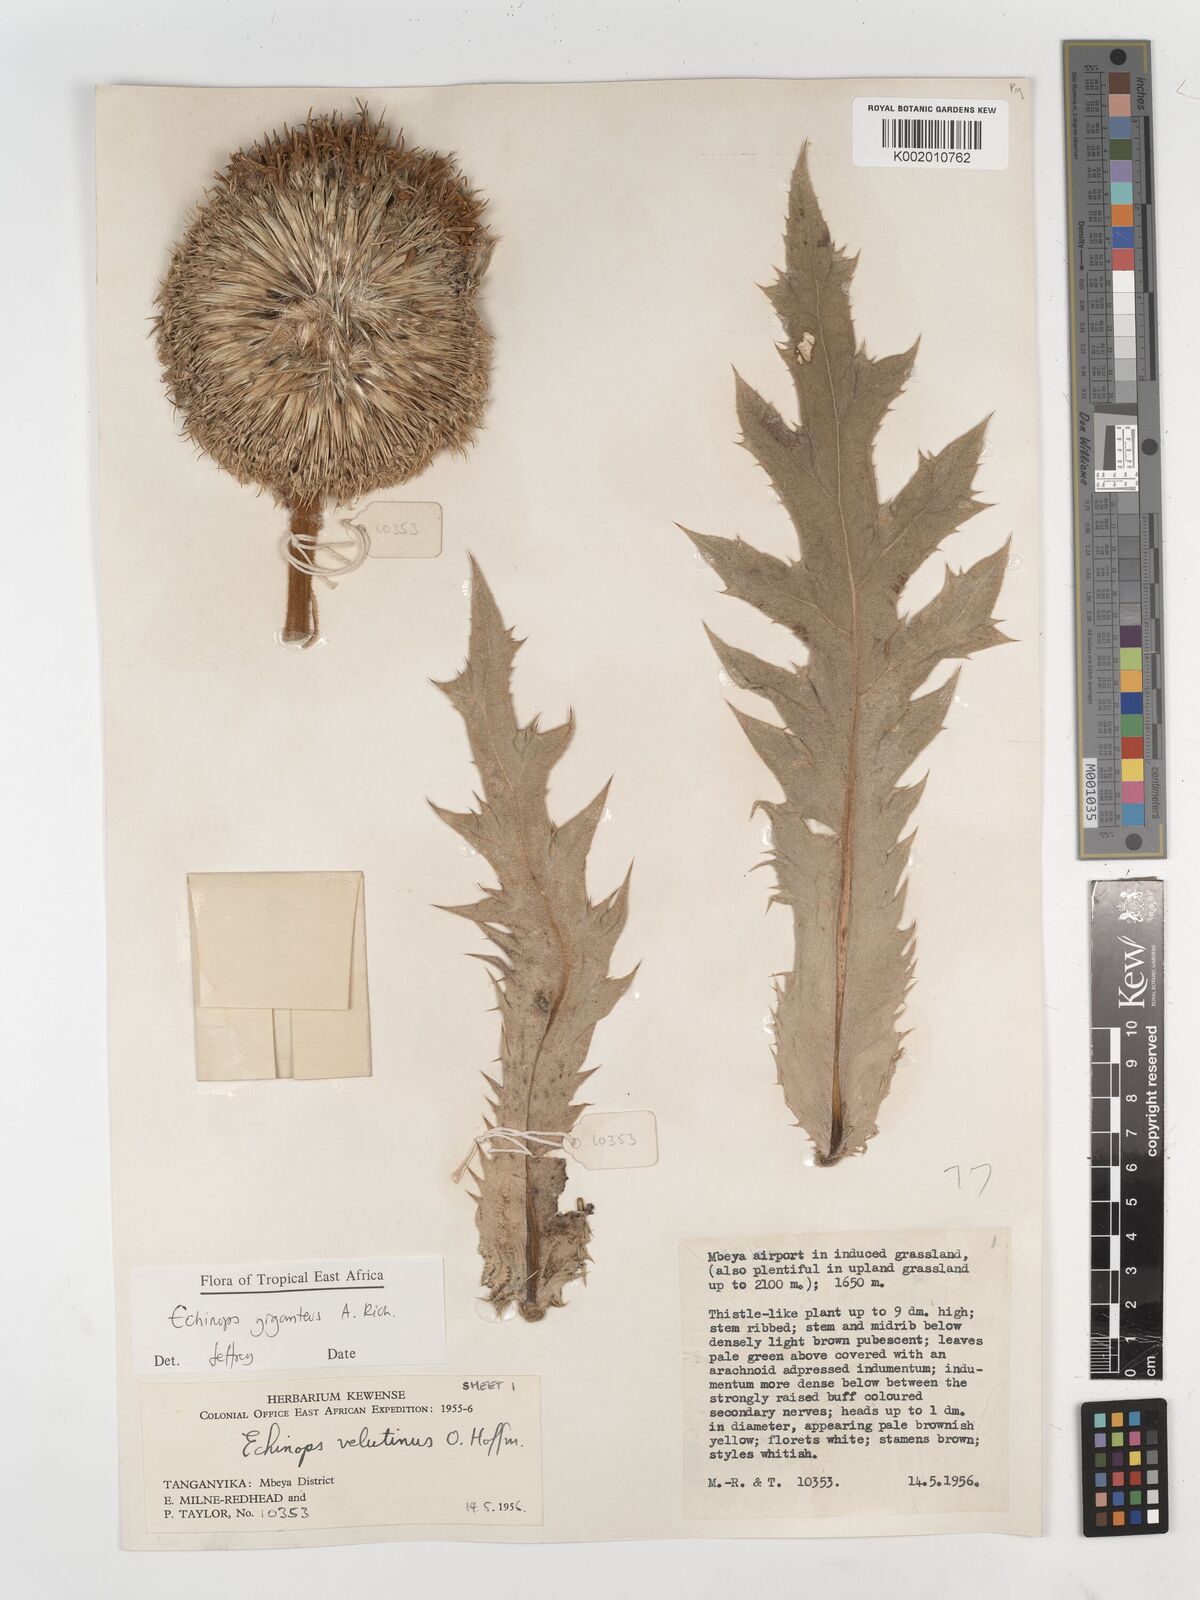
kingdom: Plantae
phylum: Tracheophyta
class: Magnoliopsida
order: Asterales
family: Asteraceae
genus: Echinops
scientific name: Echinops giganteus
